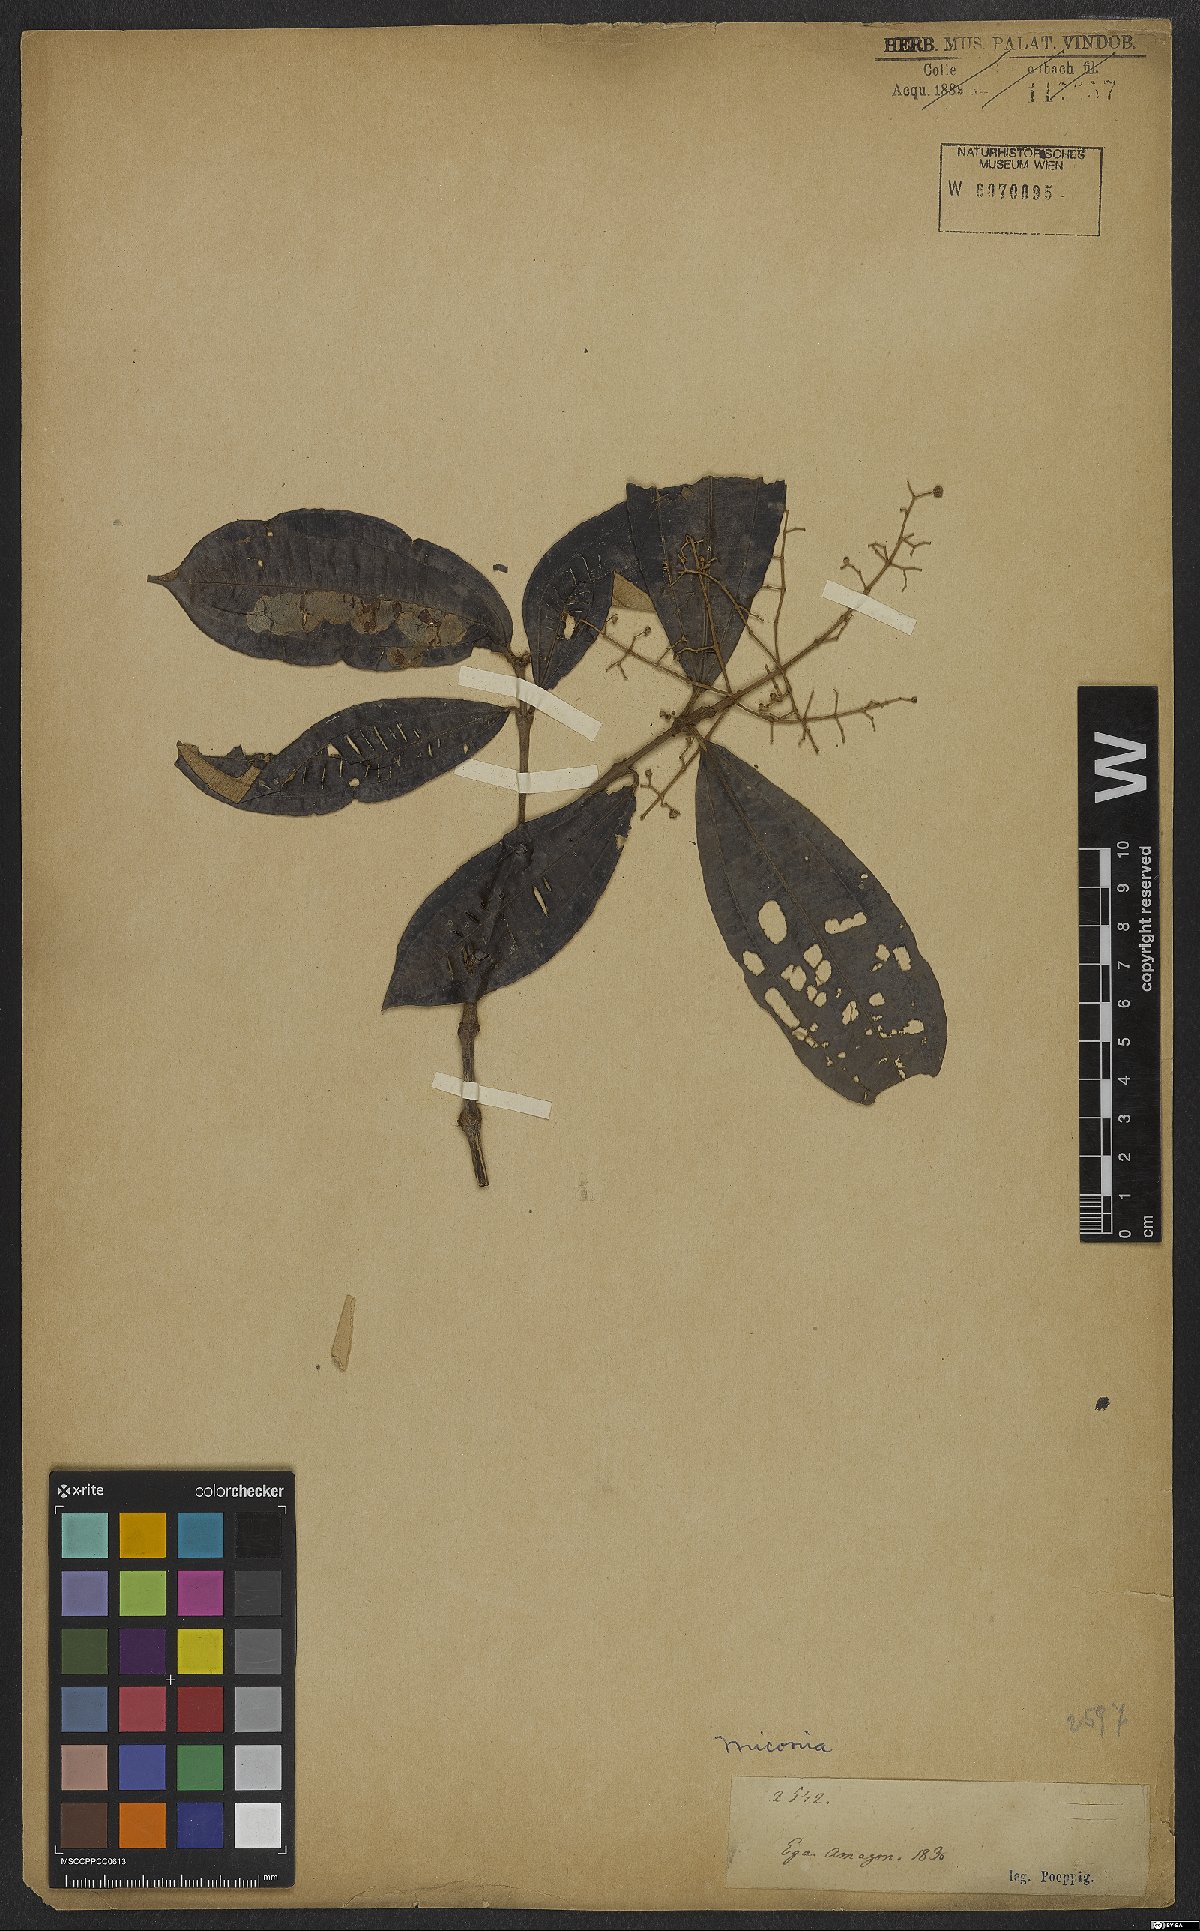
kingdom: Plantae
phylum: Tracheophyta
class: Magnoliopsida
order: Myrtales
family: Melastomataceae
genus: Miconia
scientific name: Miconia
